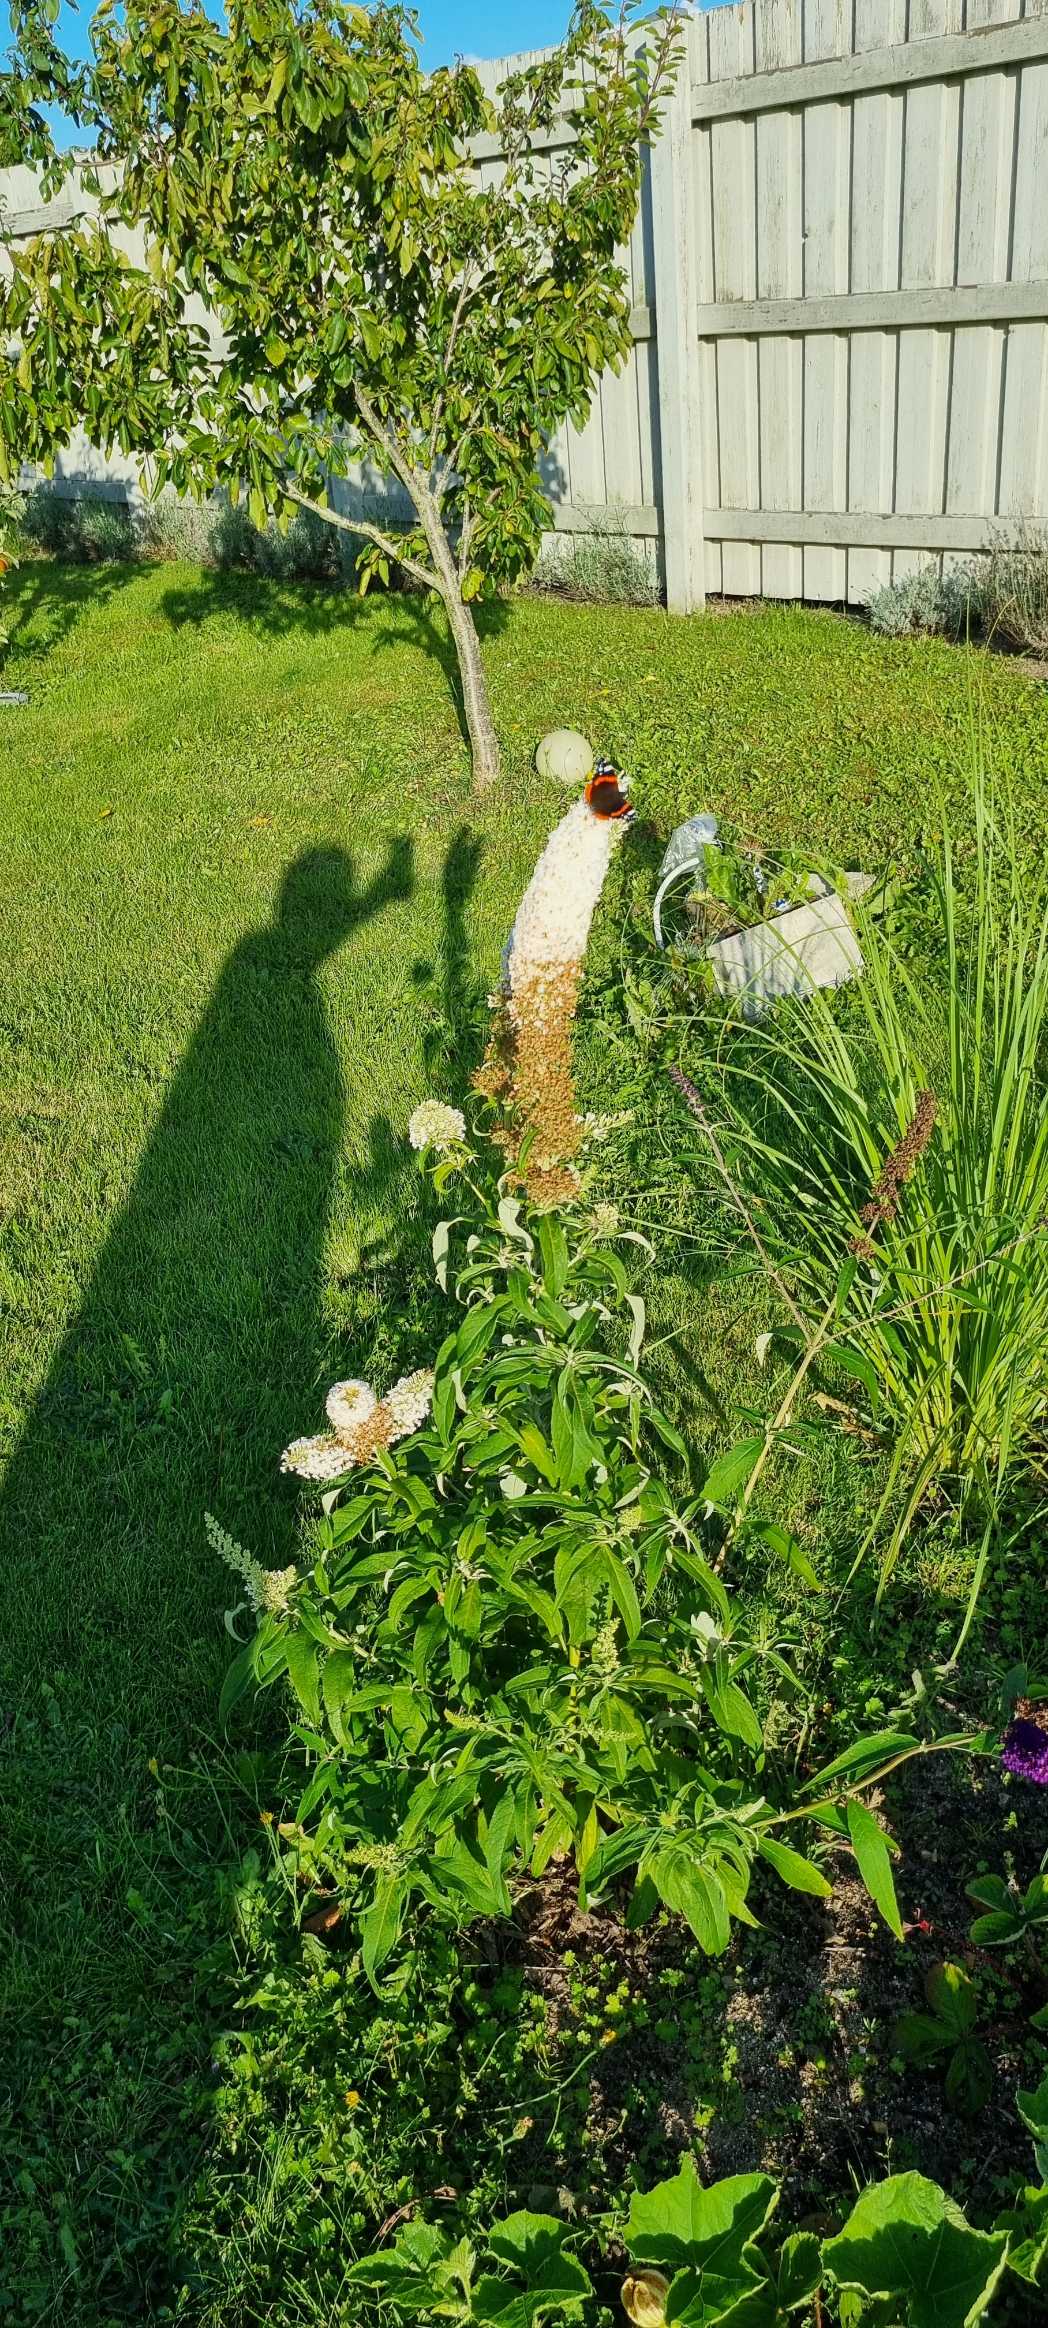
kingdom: Animalia
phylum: Arthropoda
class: Insecta
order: Lepidoptera
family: Nymphalidae
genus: Vanessa
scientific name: Vanessa atalanta
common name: Admiral
